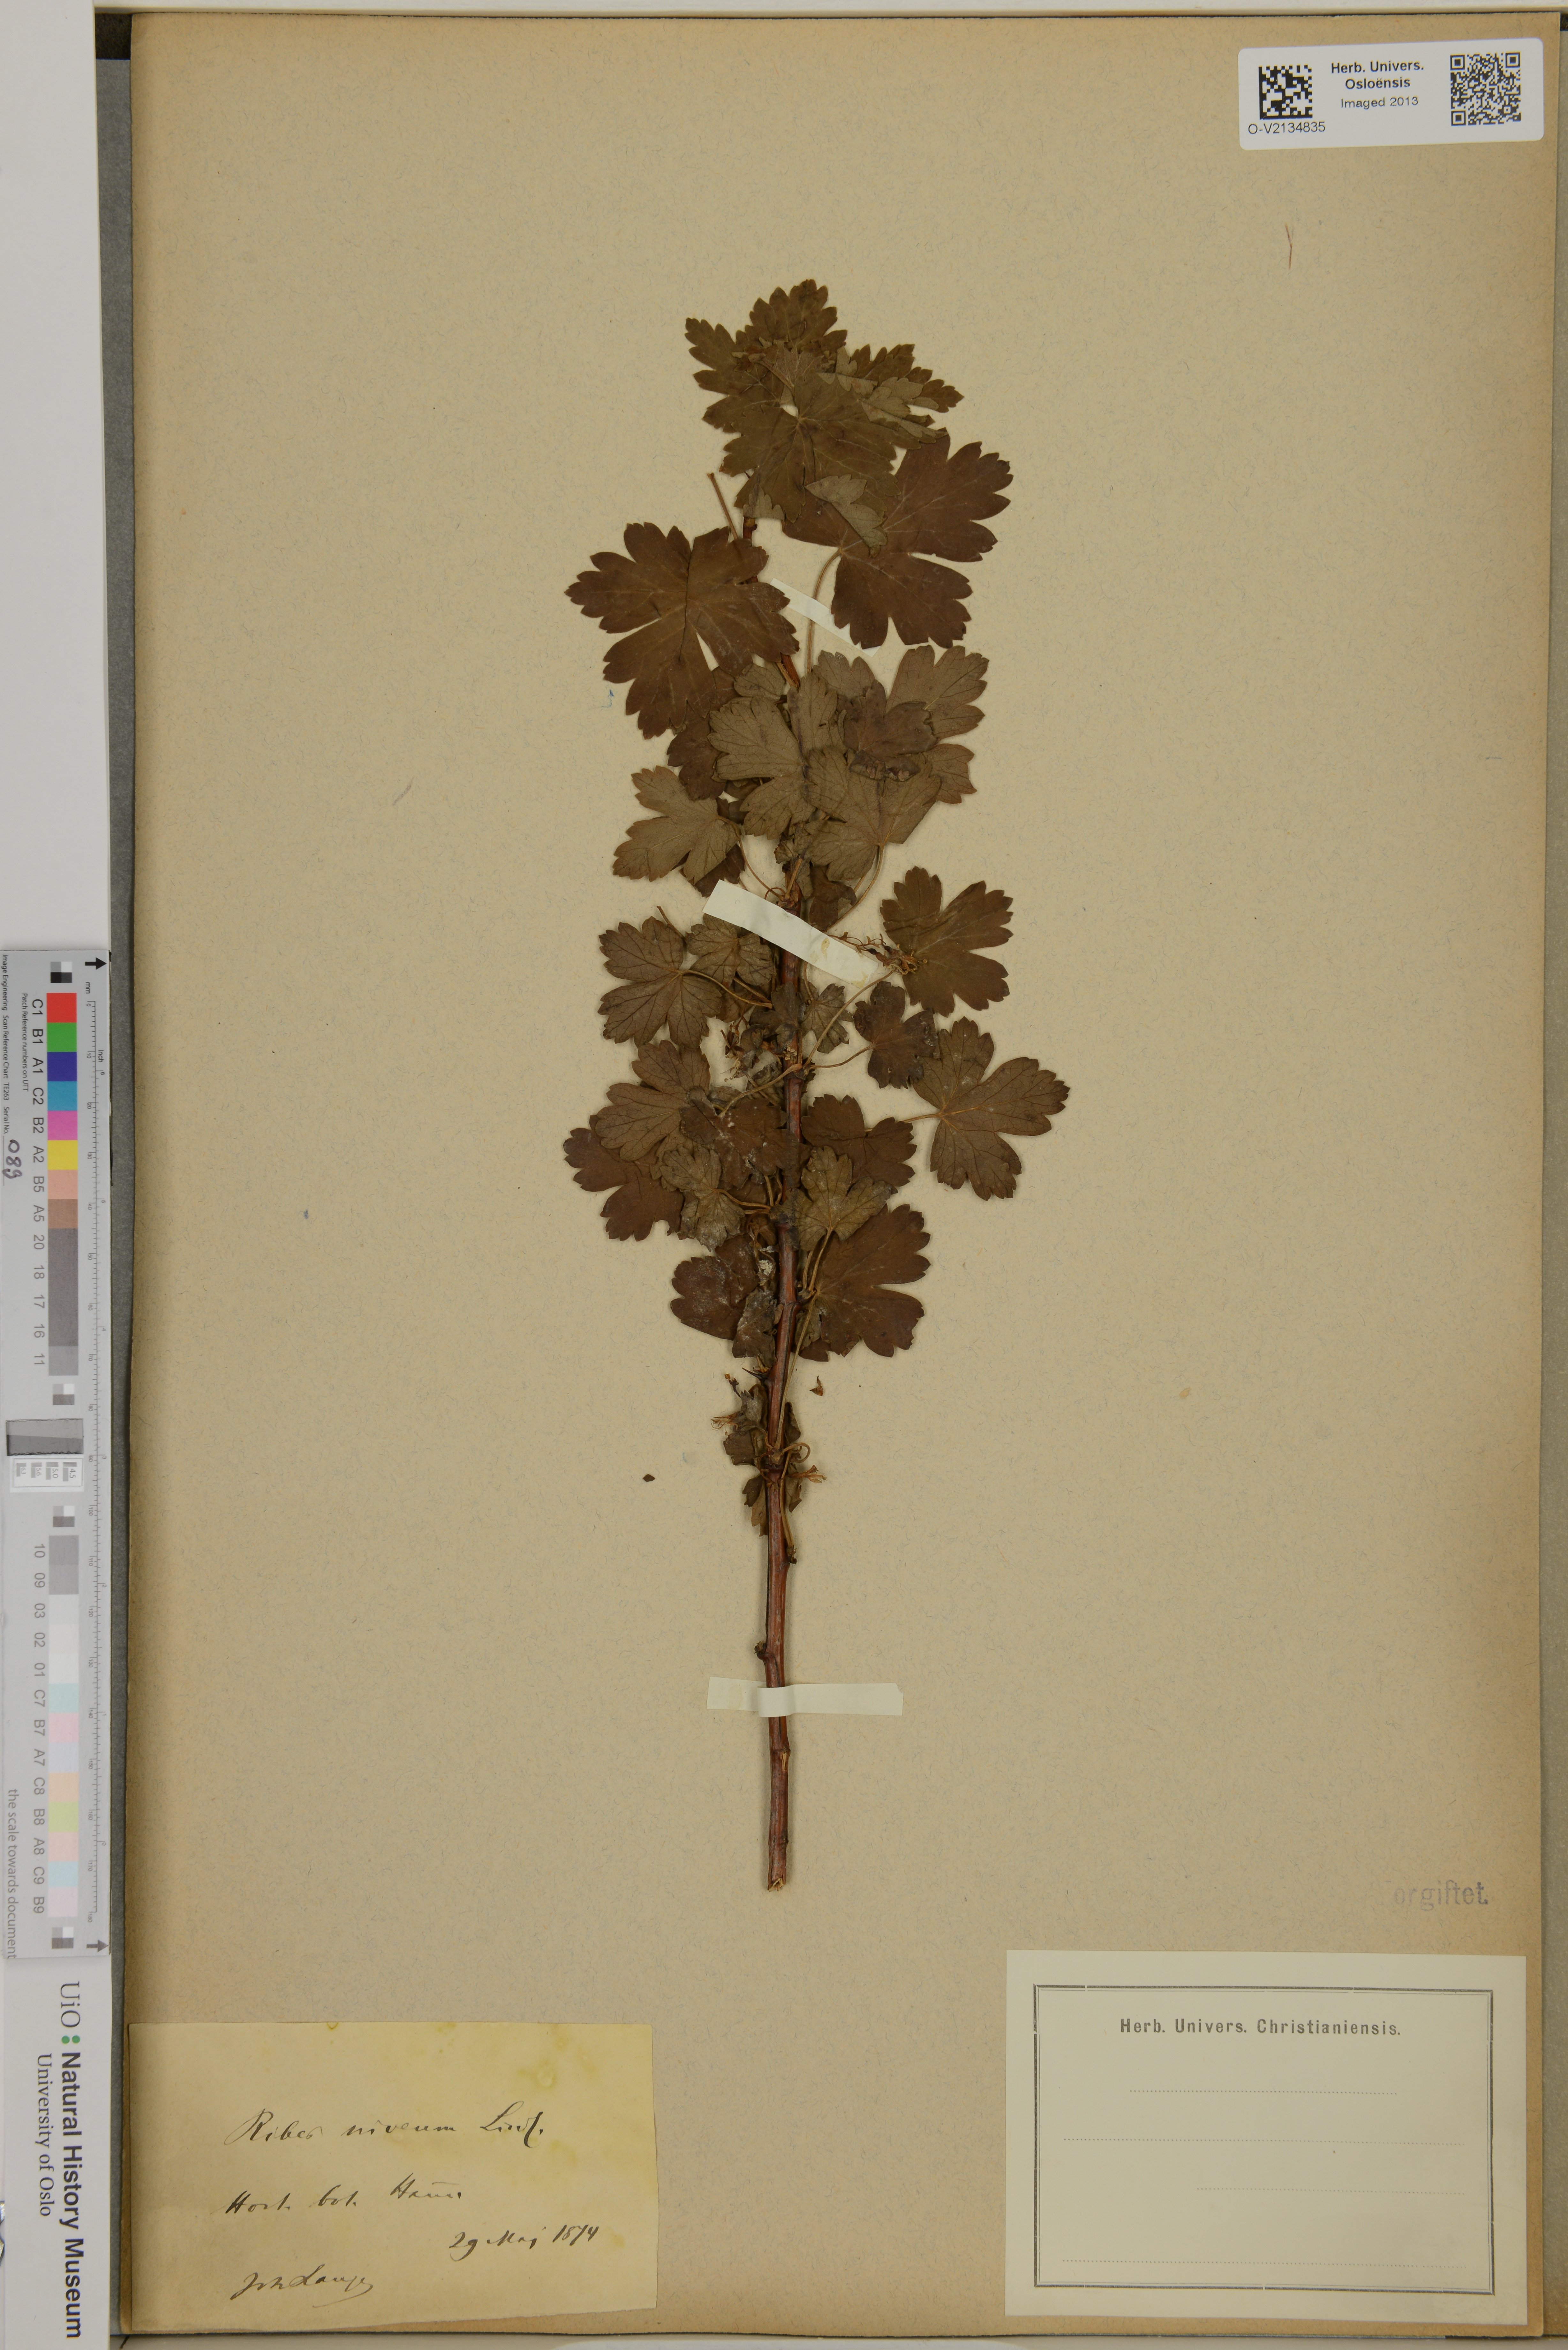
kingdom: Plantae
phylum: Tracheophyta
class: Magnoliopsida
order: Saxifragales
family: Grossulariaceae
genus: Ribes
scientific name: Ribes niveum
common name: Snake river gooseberry
